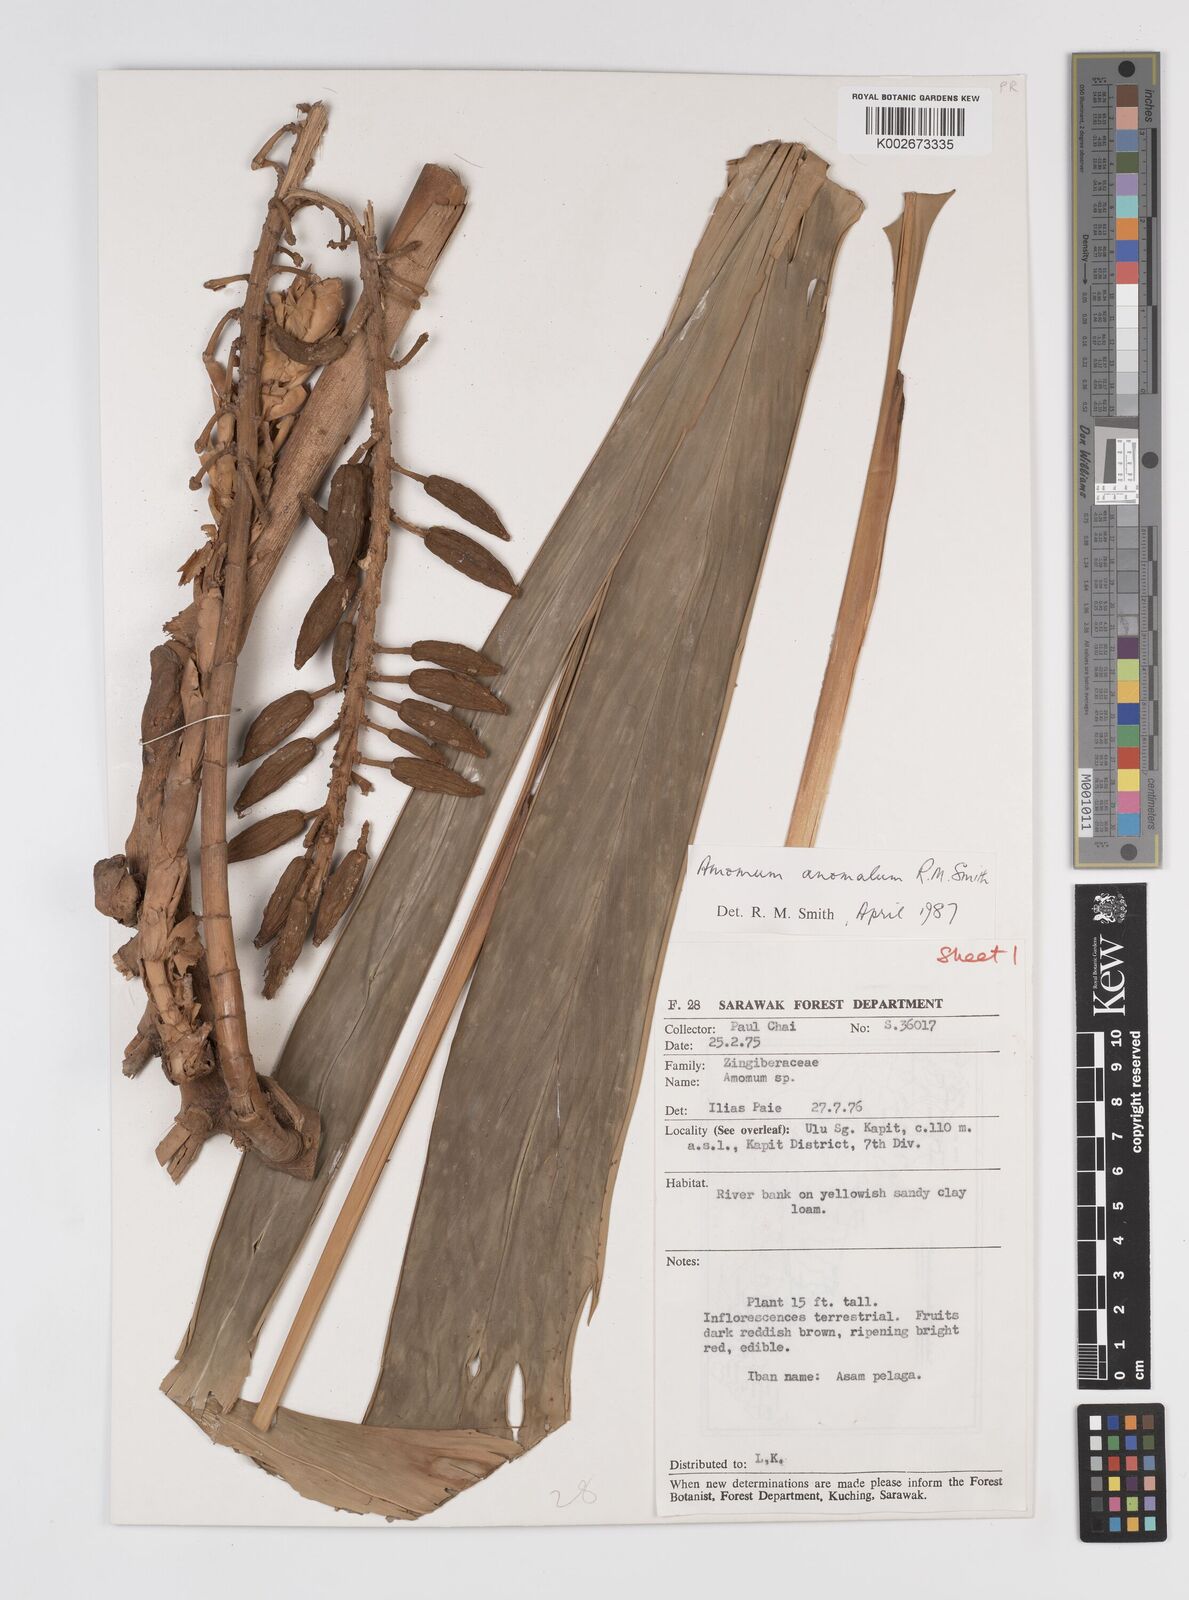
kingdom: Plantae
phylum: Tracheophyta
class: Liliopsida
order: Zingiberales
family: Zingiberaceae
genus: Sulettaria
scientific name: Sulettaria anomala
